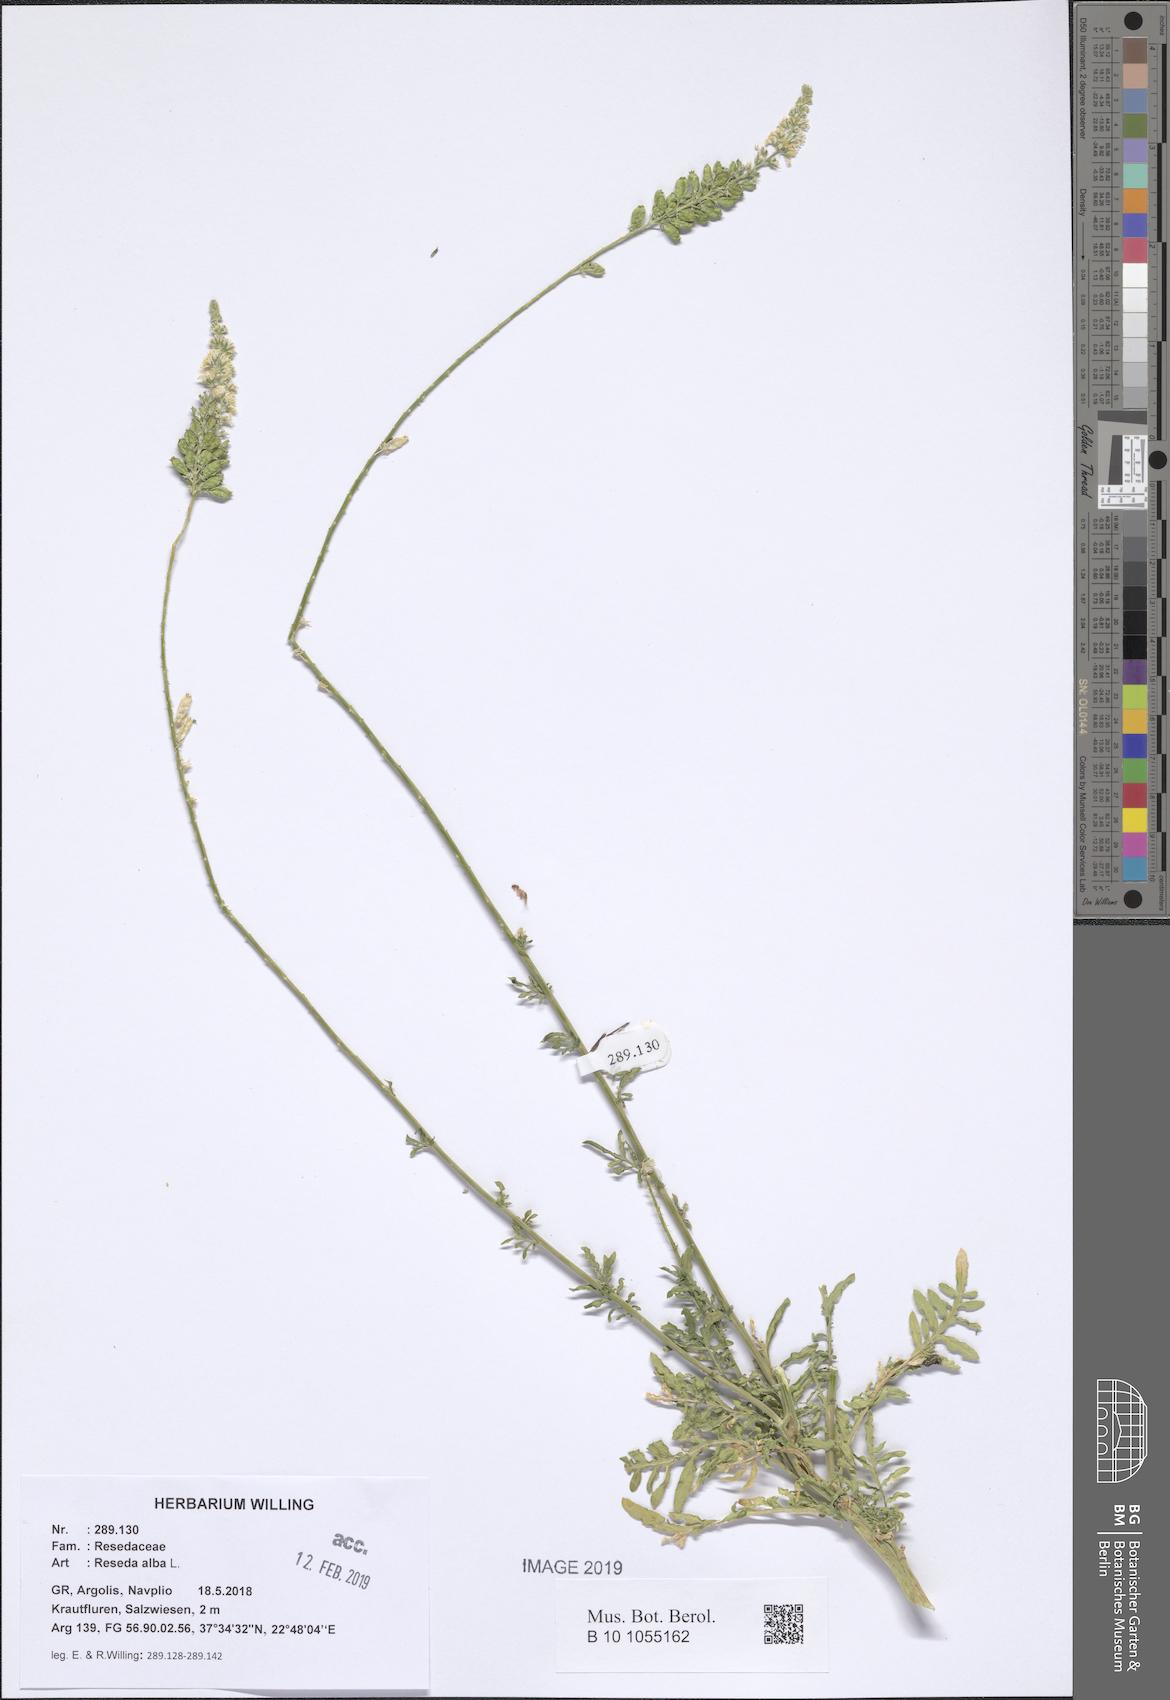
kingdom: Plantae
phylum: Tracheophyta
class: Magnoliopsida
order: Brassicales
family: Resedaceae
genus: Reseda
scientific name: Reseda alba
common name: White mignonette
